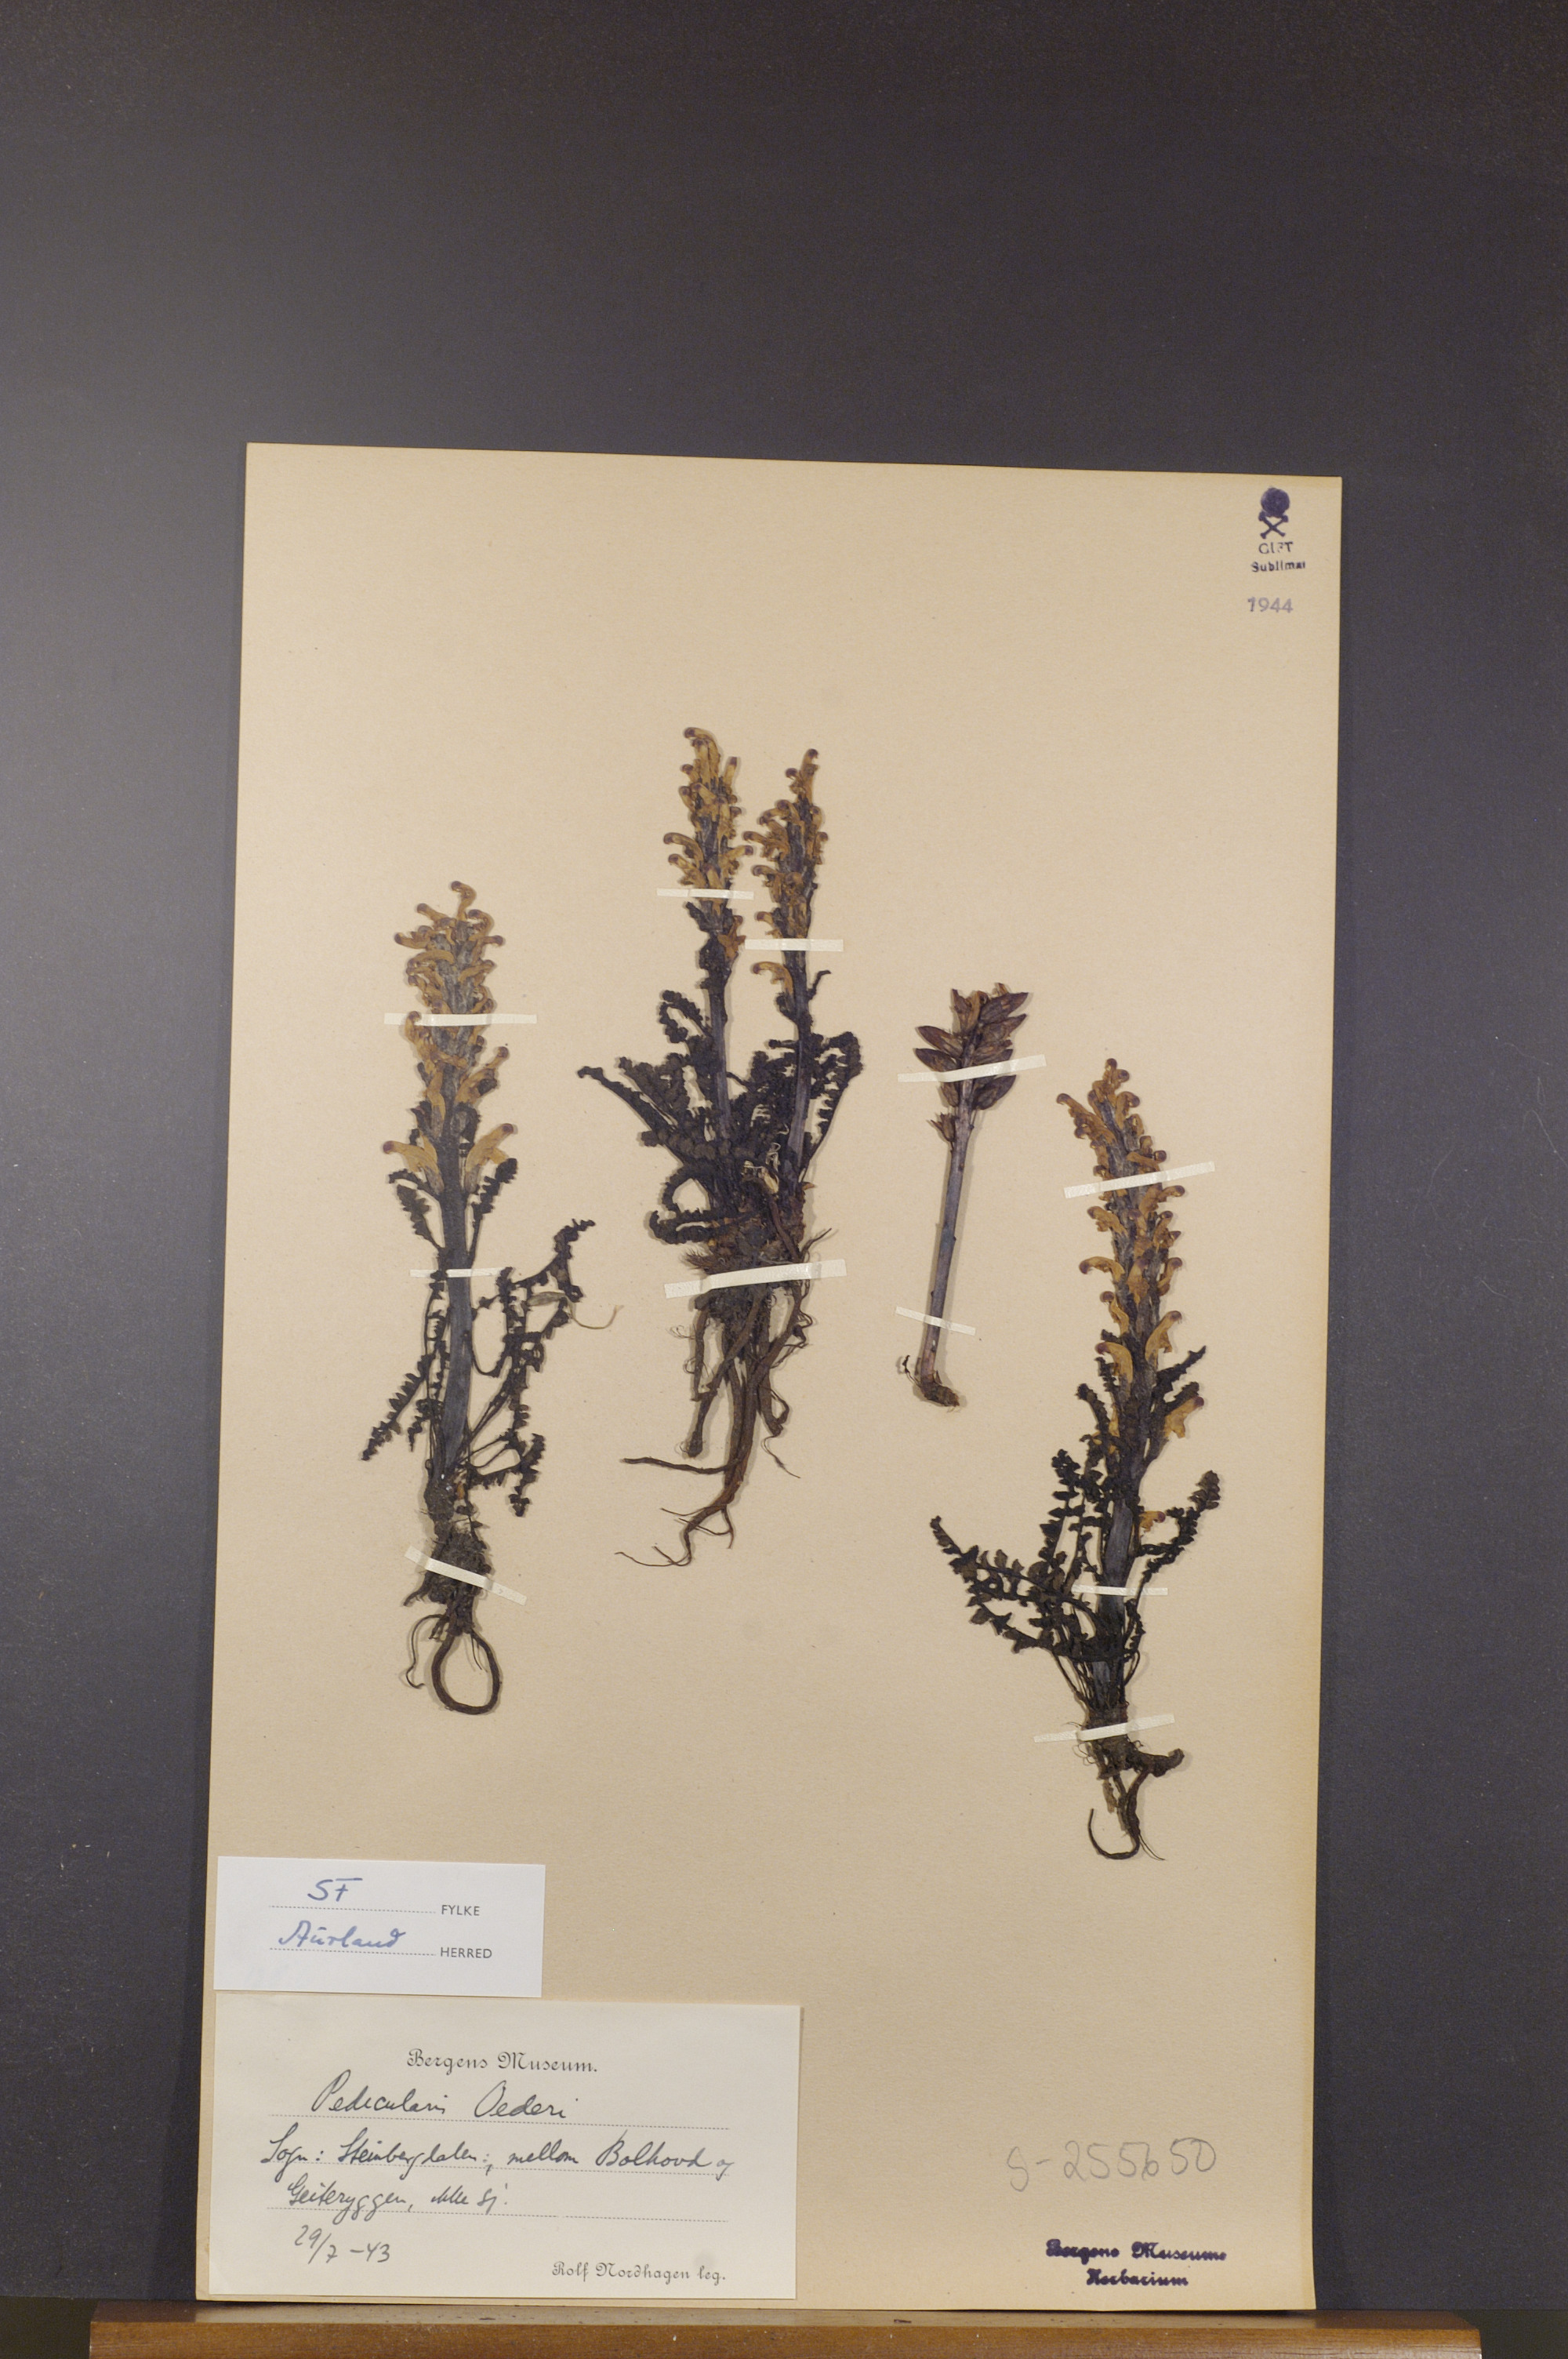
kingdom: Plantae
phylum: Tracheophyta
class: Magnoliopsida
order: Lamiales
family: Orobanchaceae
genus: Pedicularis
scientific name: Pedicularis oederi
